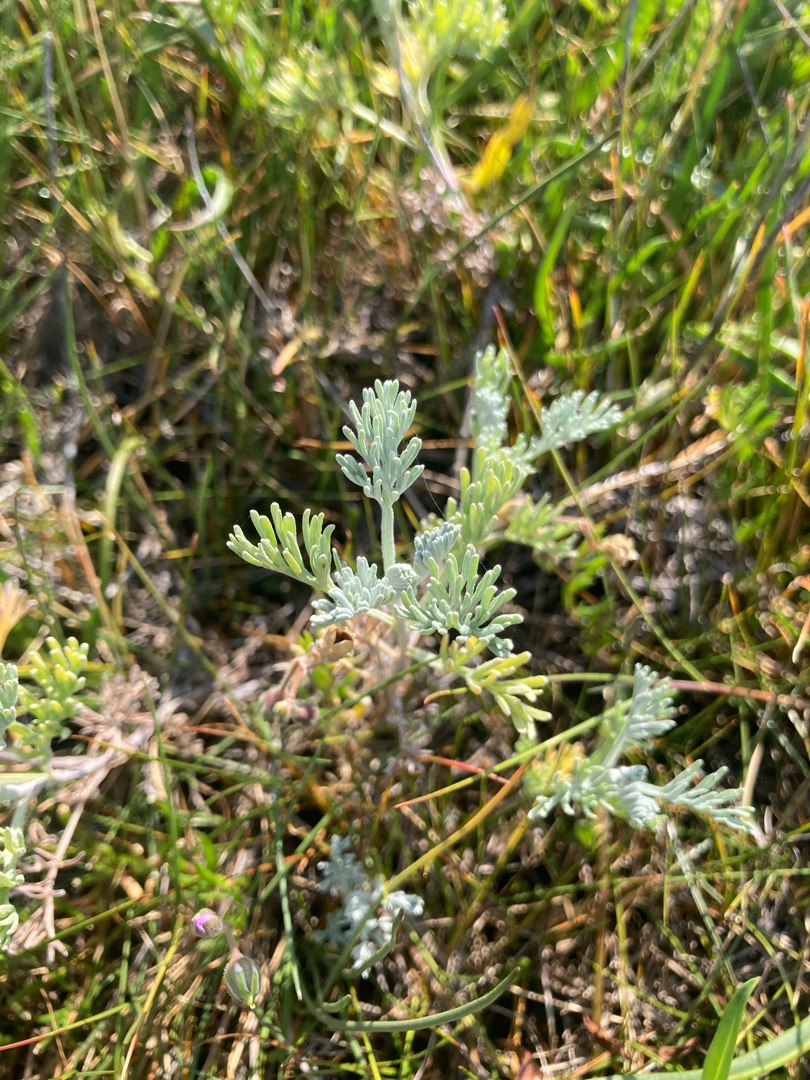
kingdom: Plantae
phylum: Tracheophyta
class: Magnoliopsida
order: Asterales
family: Asteraceae
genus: Artemisia
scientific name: Artemisia maritima
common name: Strandmalurt
